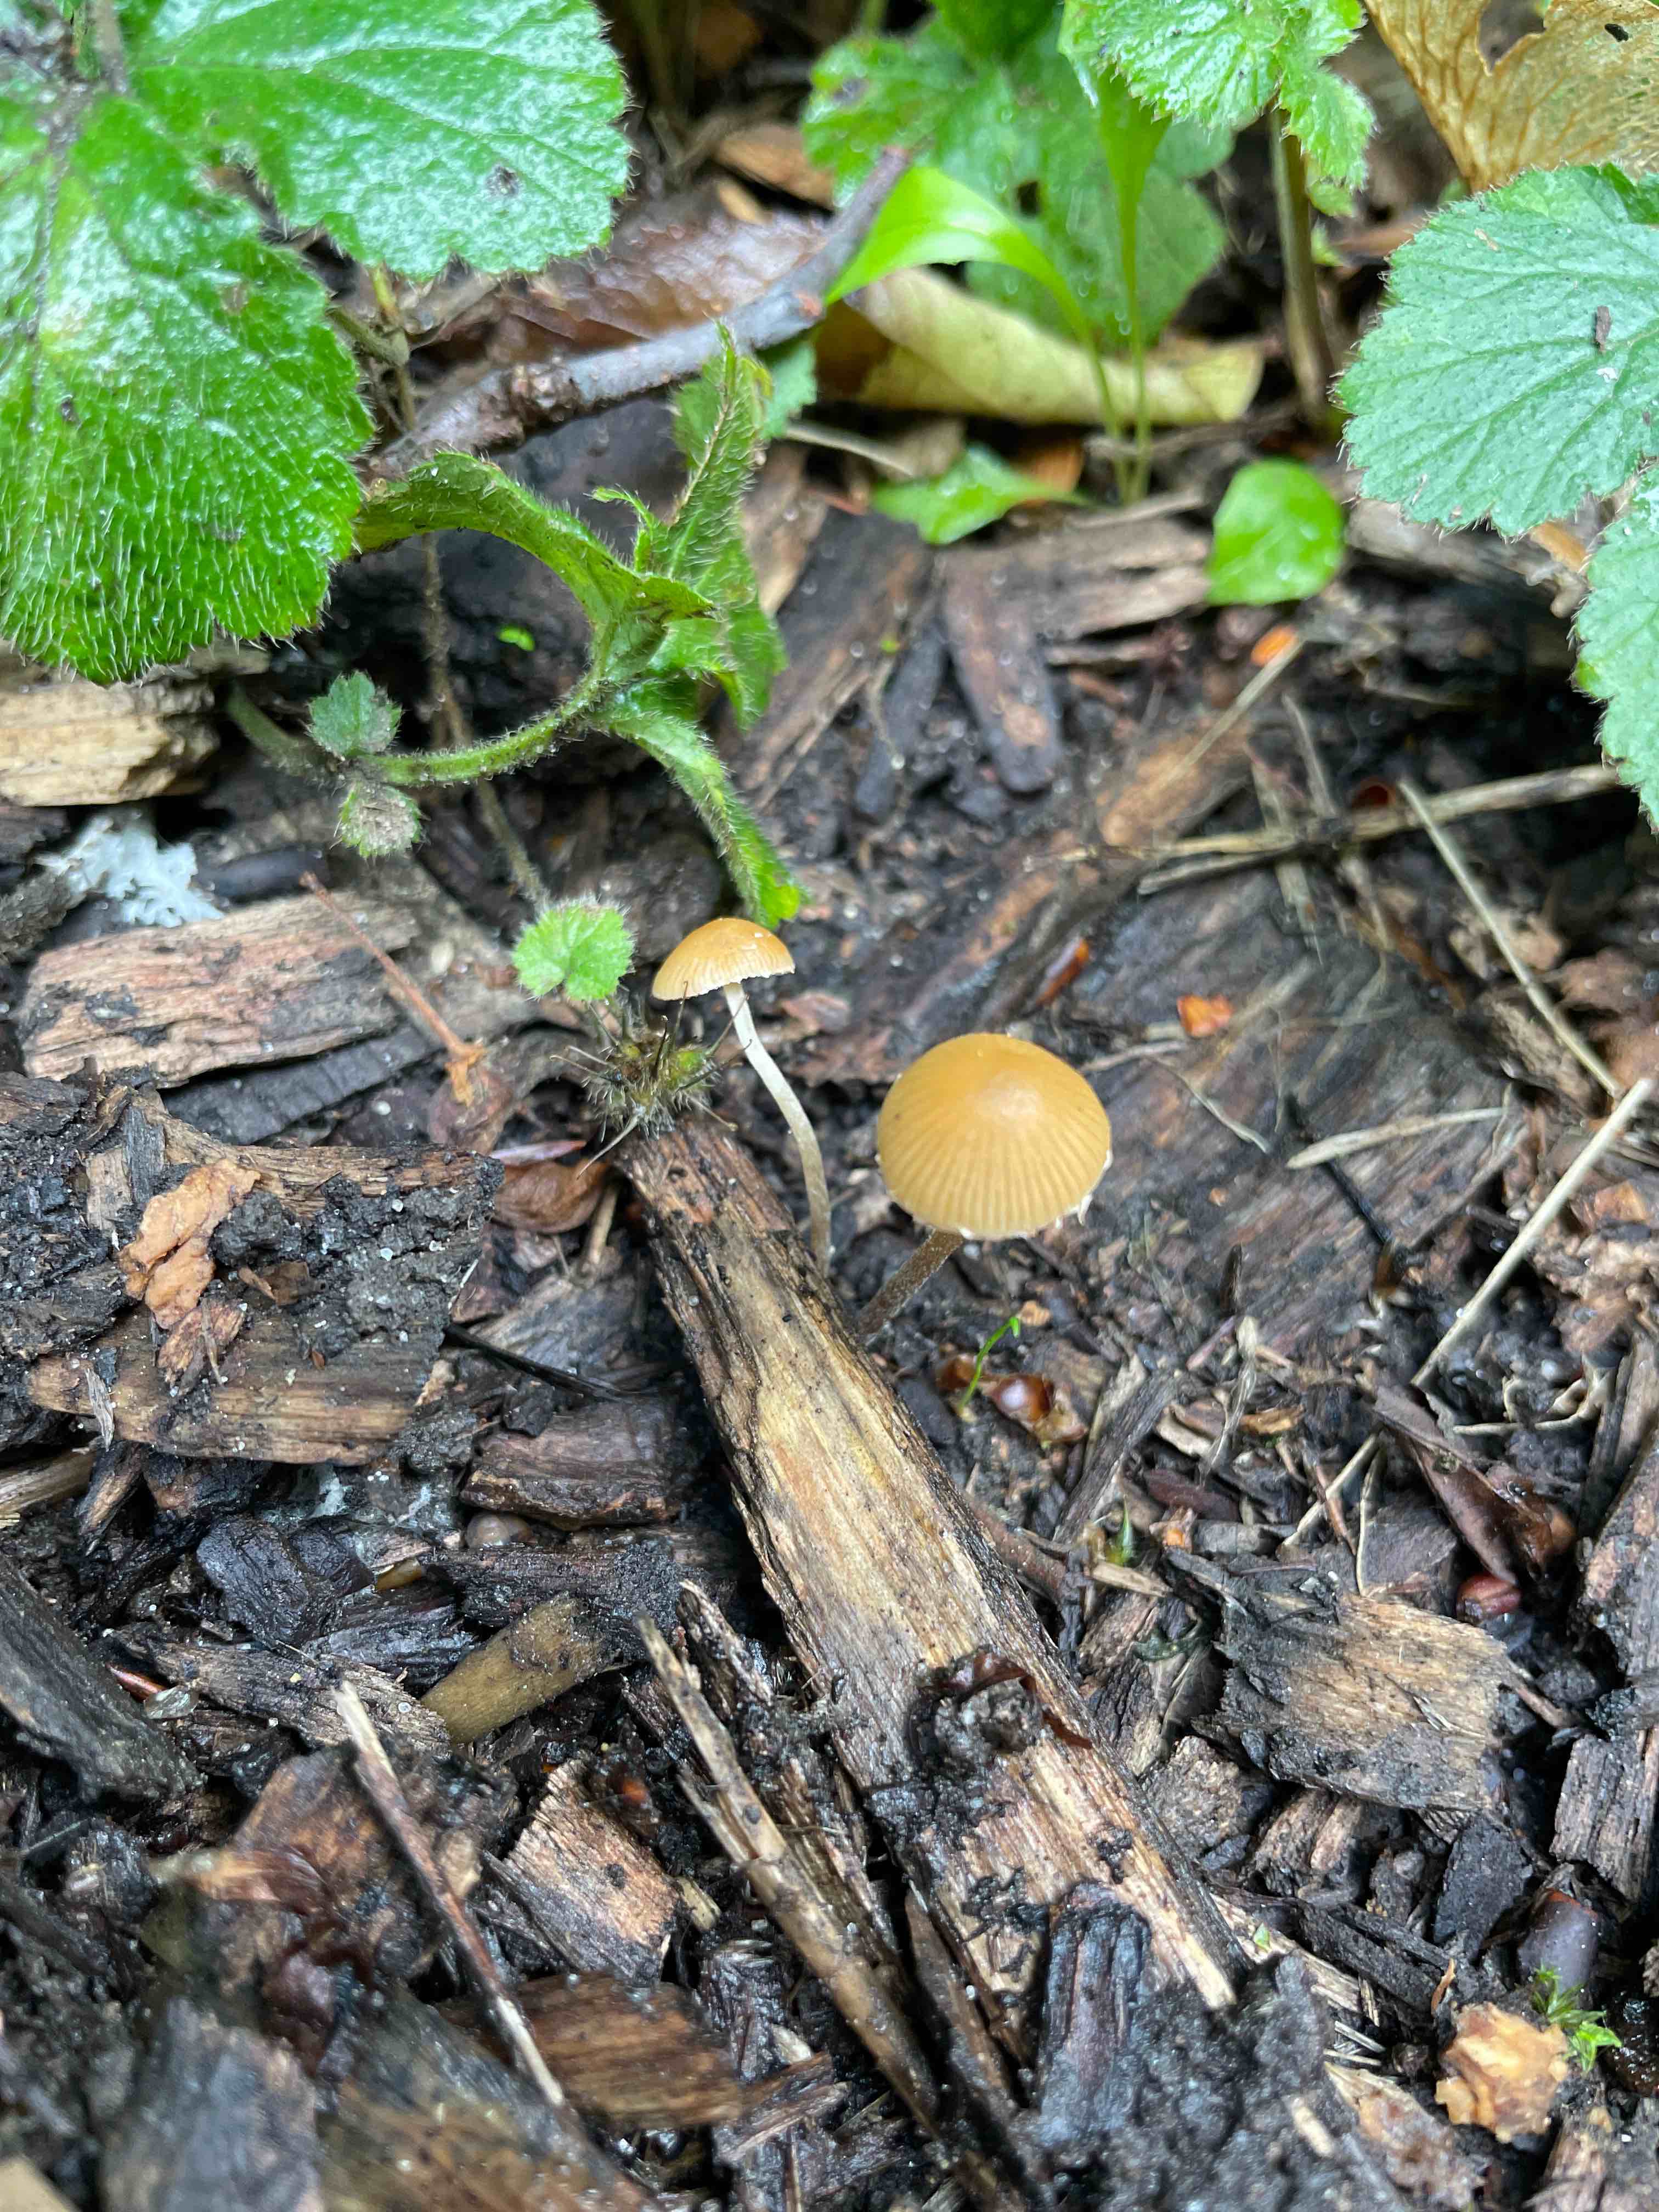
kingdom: Fungi
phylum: Basidiomycota
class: Agaricomycetes
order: Agaricales
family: Bolbitiaceae
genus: Conocybe
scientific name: Conocybe velata
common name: tandet dansehat
